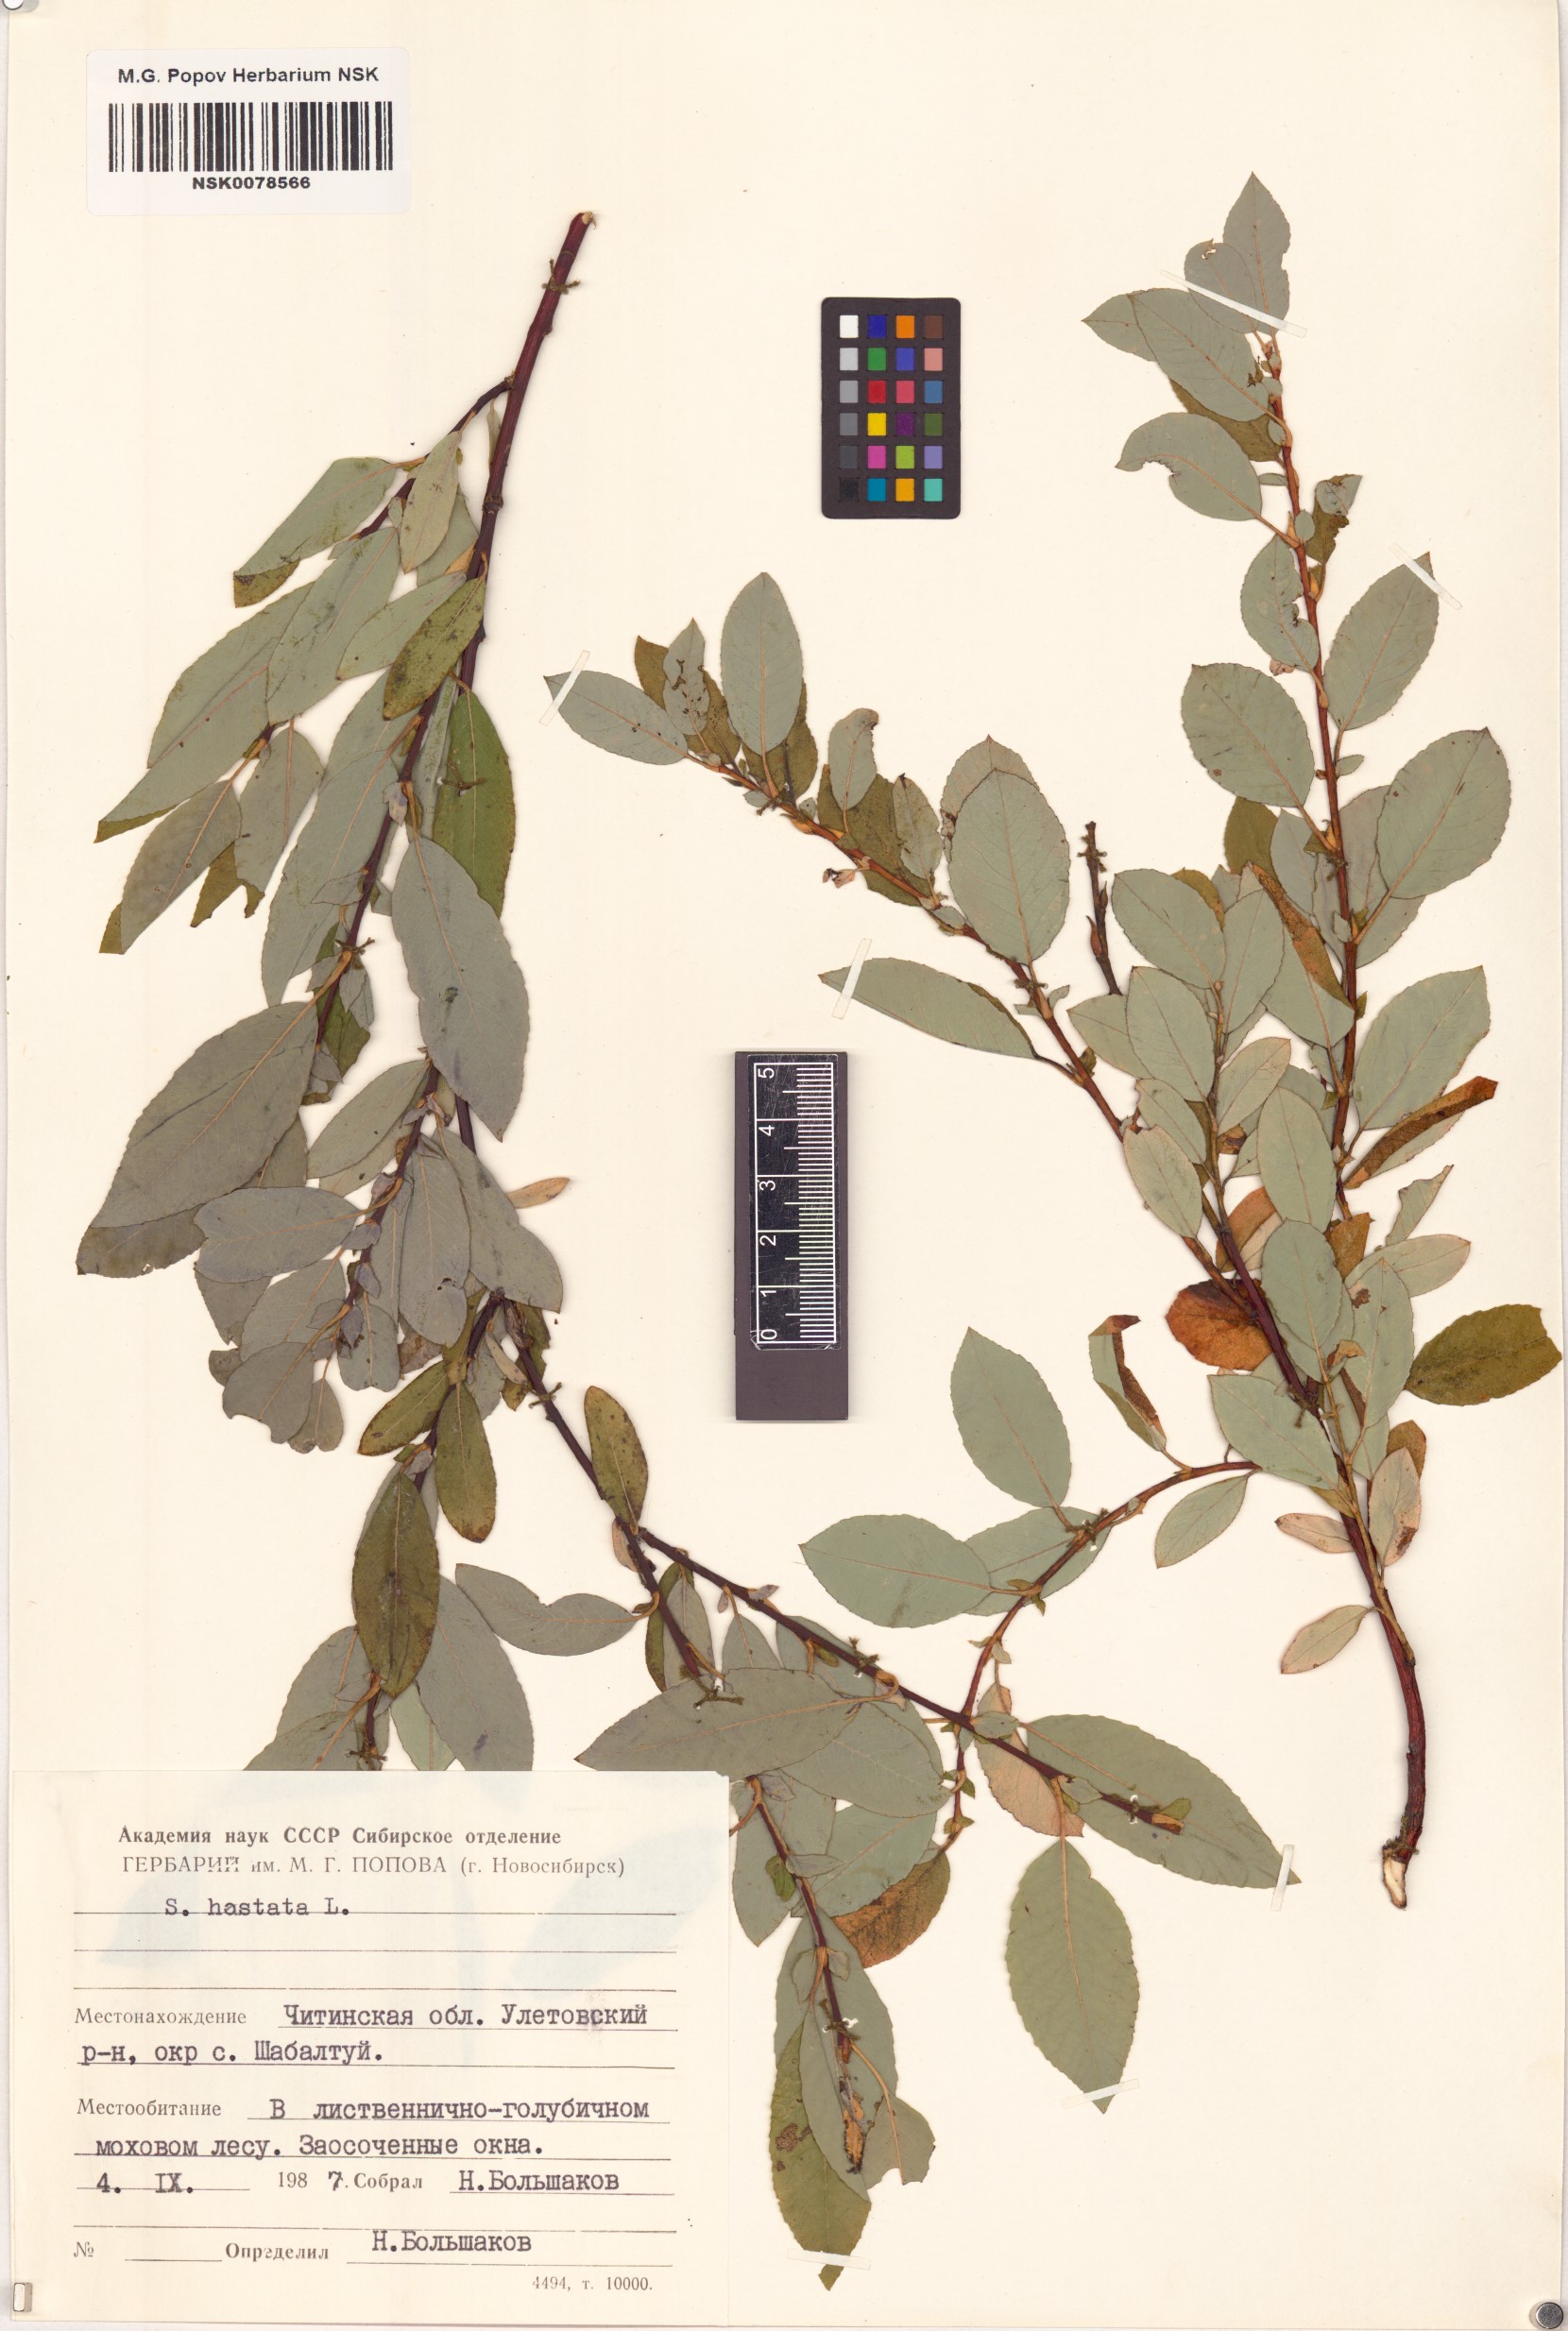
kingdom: Plantae
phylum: Tracheophyta
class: Magnoliopsida
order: Malpighiales
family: Salicaceae
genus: Salix
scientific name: Salix hastata
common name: Halberd willow
